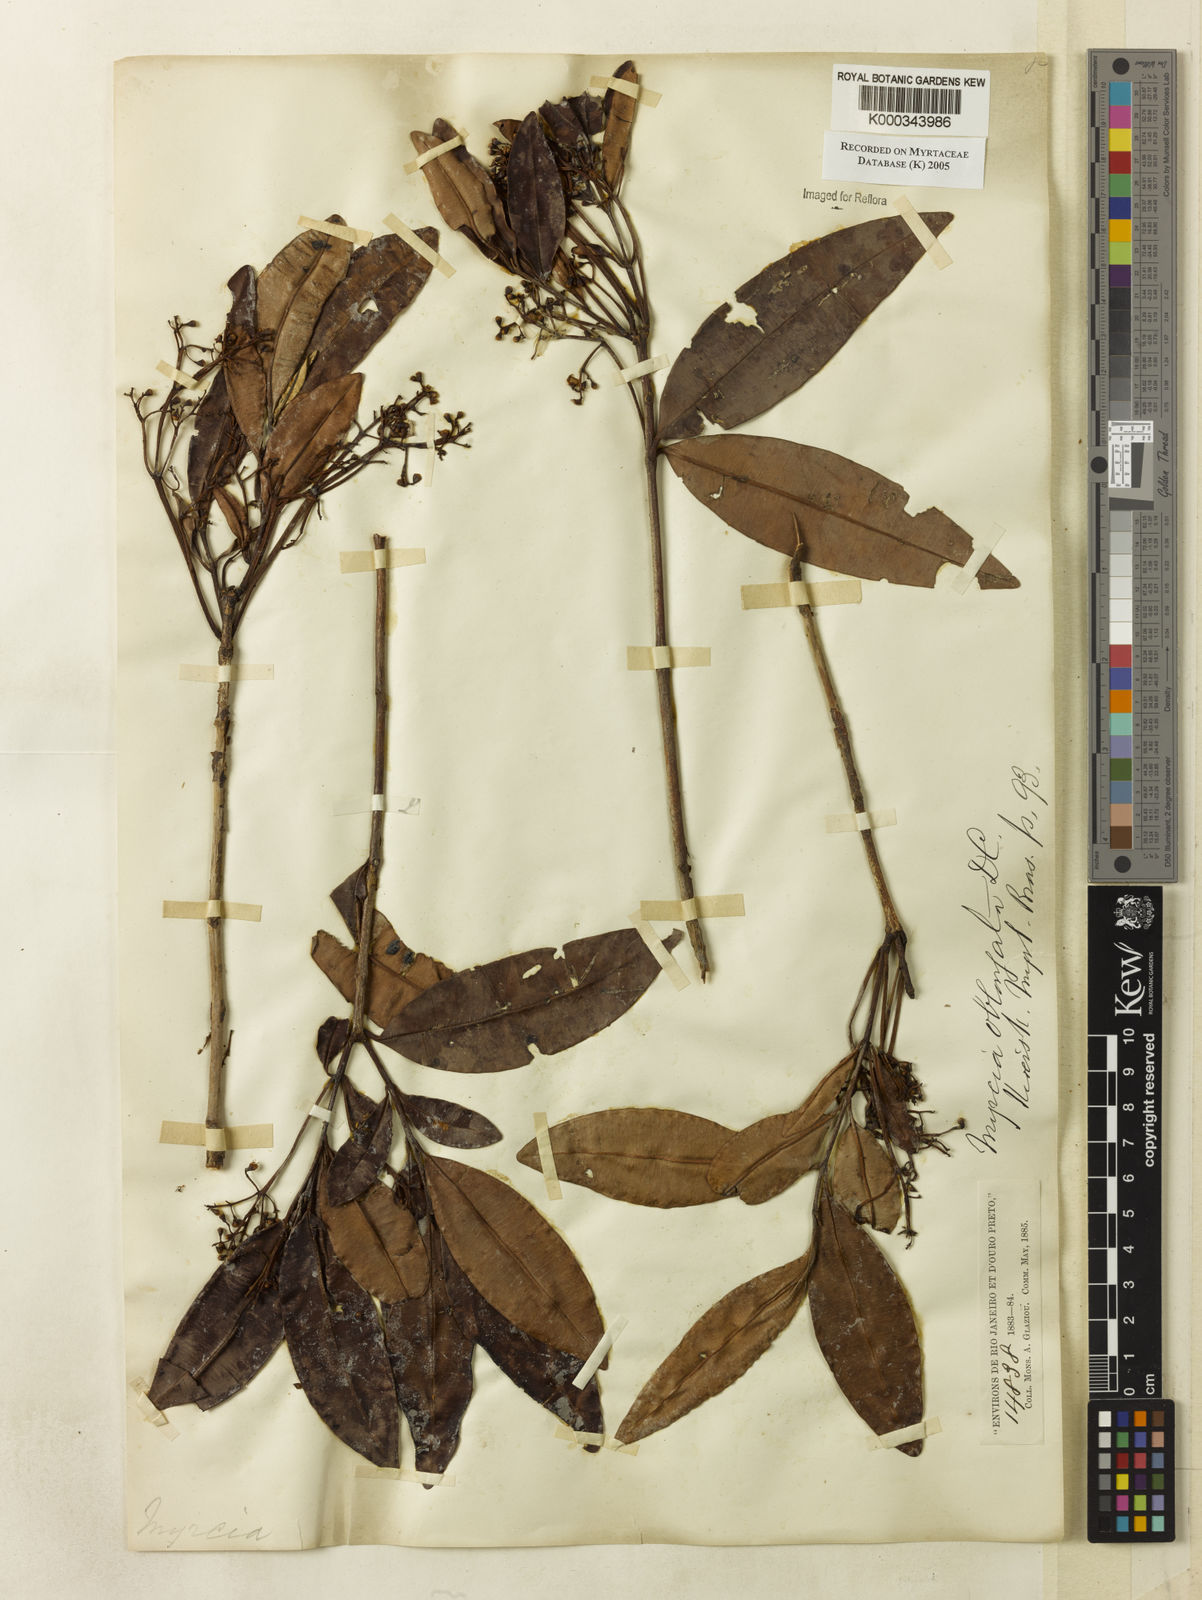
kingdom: Plantae
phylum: Tracheophyta
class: Magnoliopsida
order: Myrtales
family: Myrtaceae
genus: Myrcia
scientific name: Myrcia oblongata
